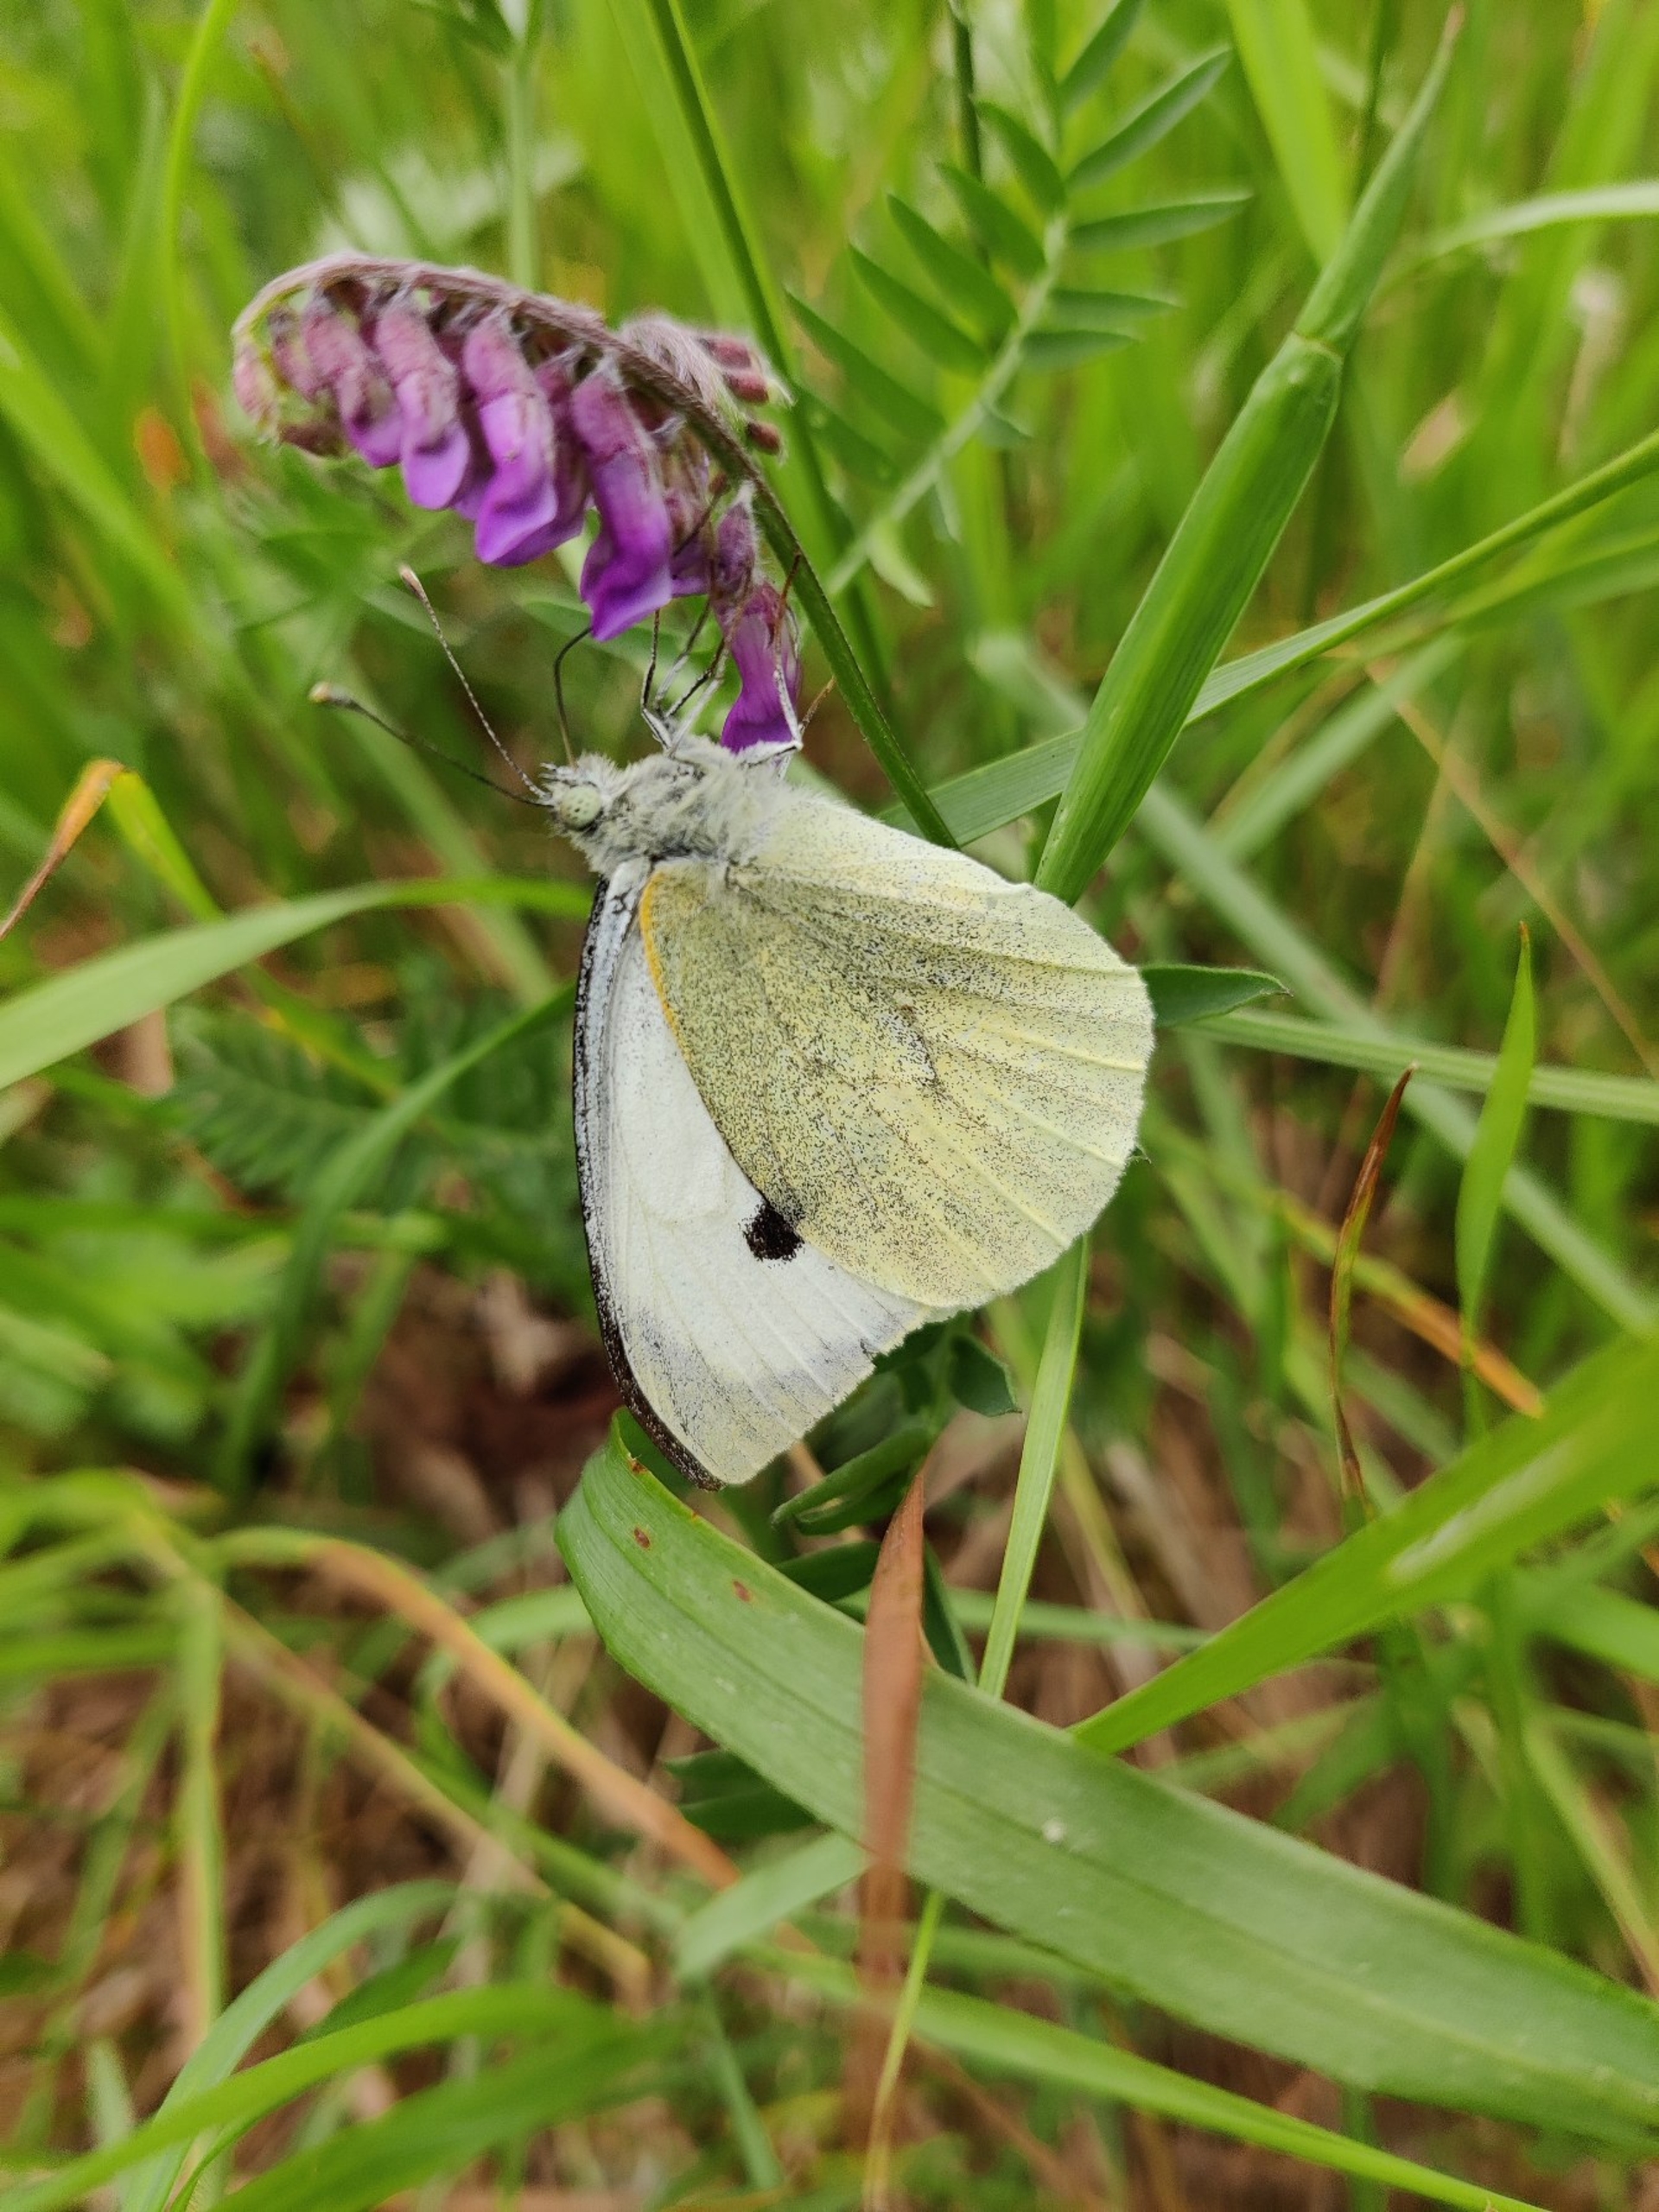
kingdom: Animalia
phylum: Arthropoda
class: Insecta
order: Lepidoptera
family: Pieridae
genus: Pieris
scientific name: Pieris brassicae
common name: Stor kålsommerfugl
